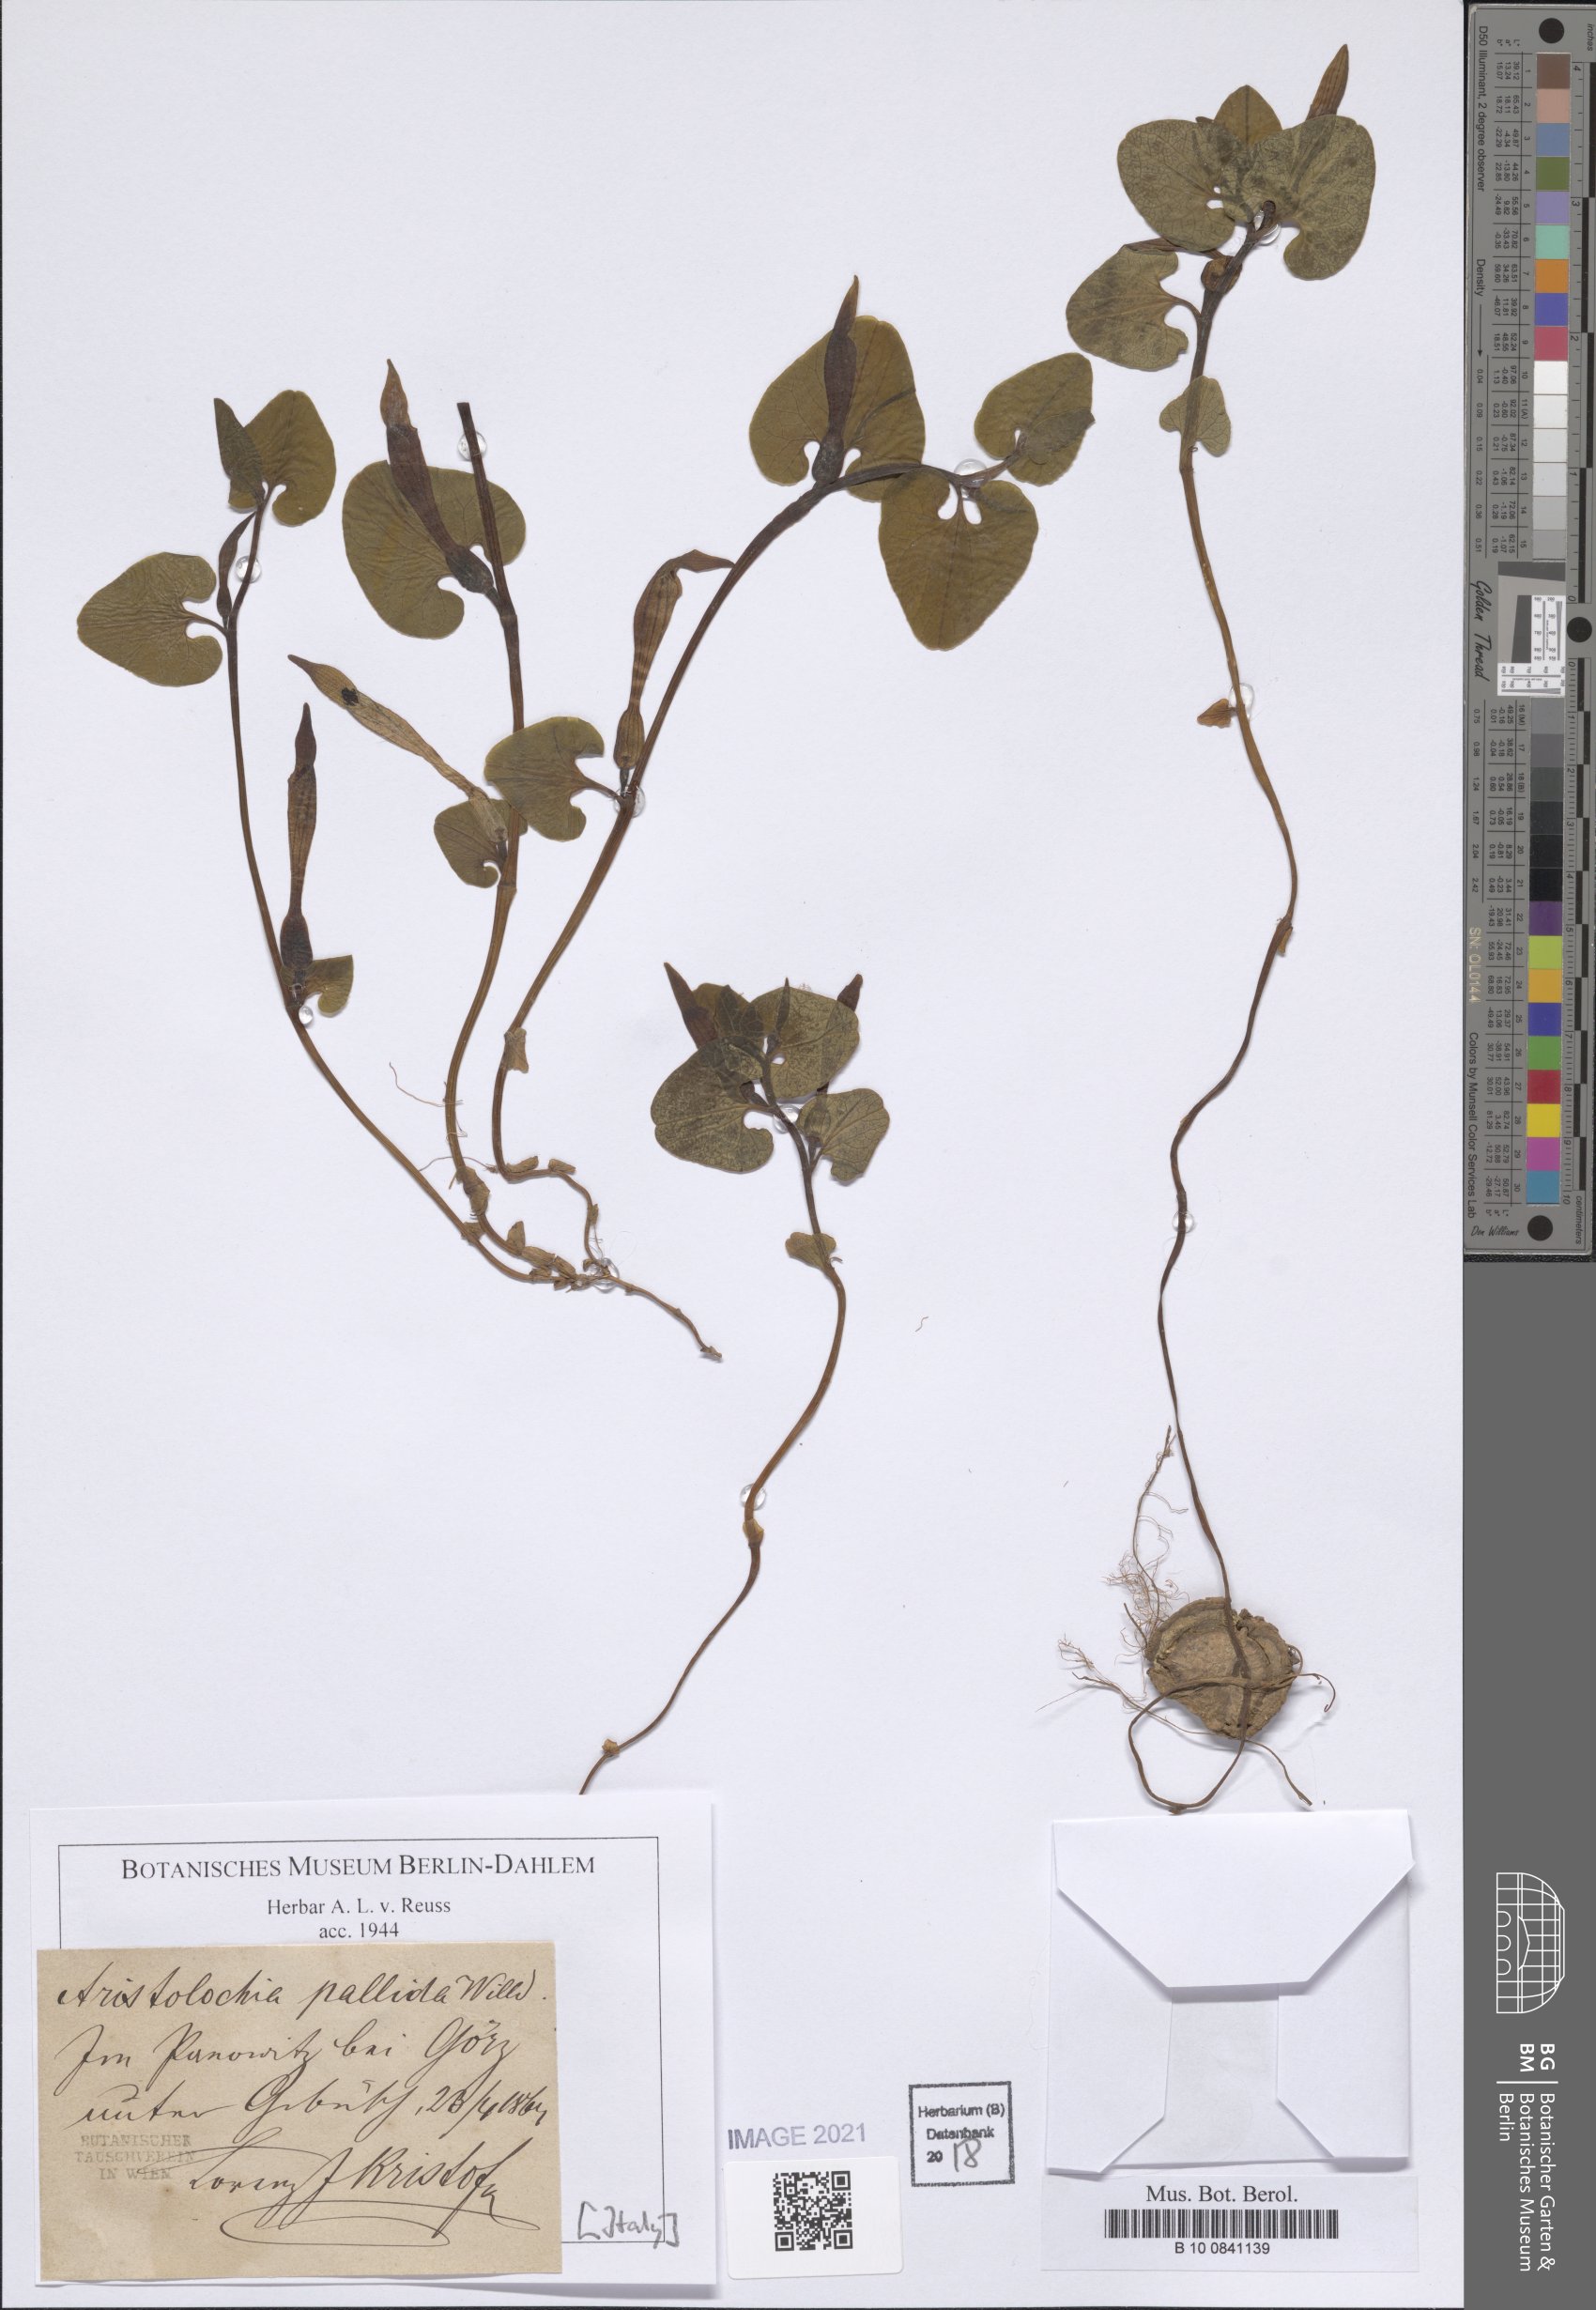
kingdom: Plantae
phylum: Tracheophyta
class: Magnoliopsida
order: Piperales
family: Aristolochiaceae
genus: Aristolochia
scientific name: Aristolochia pallida
